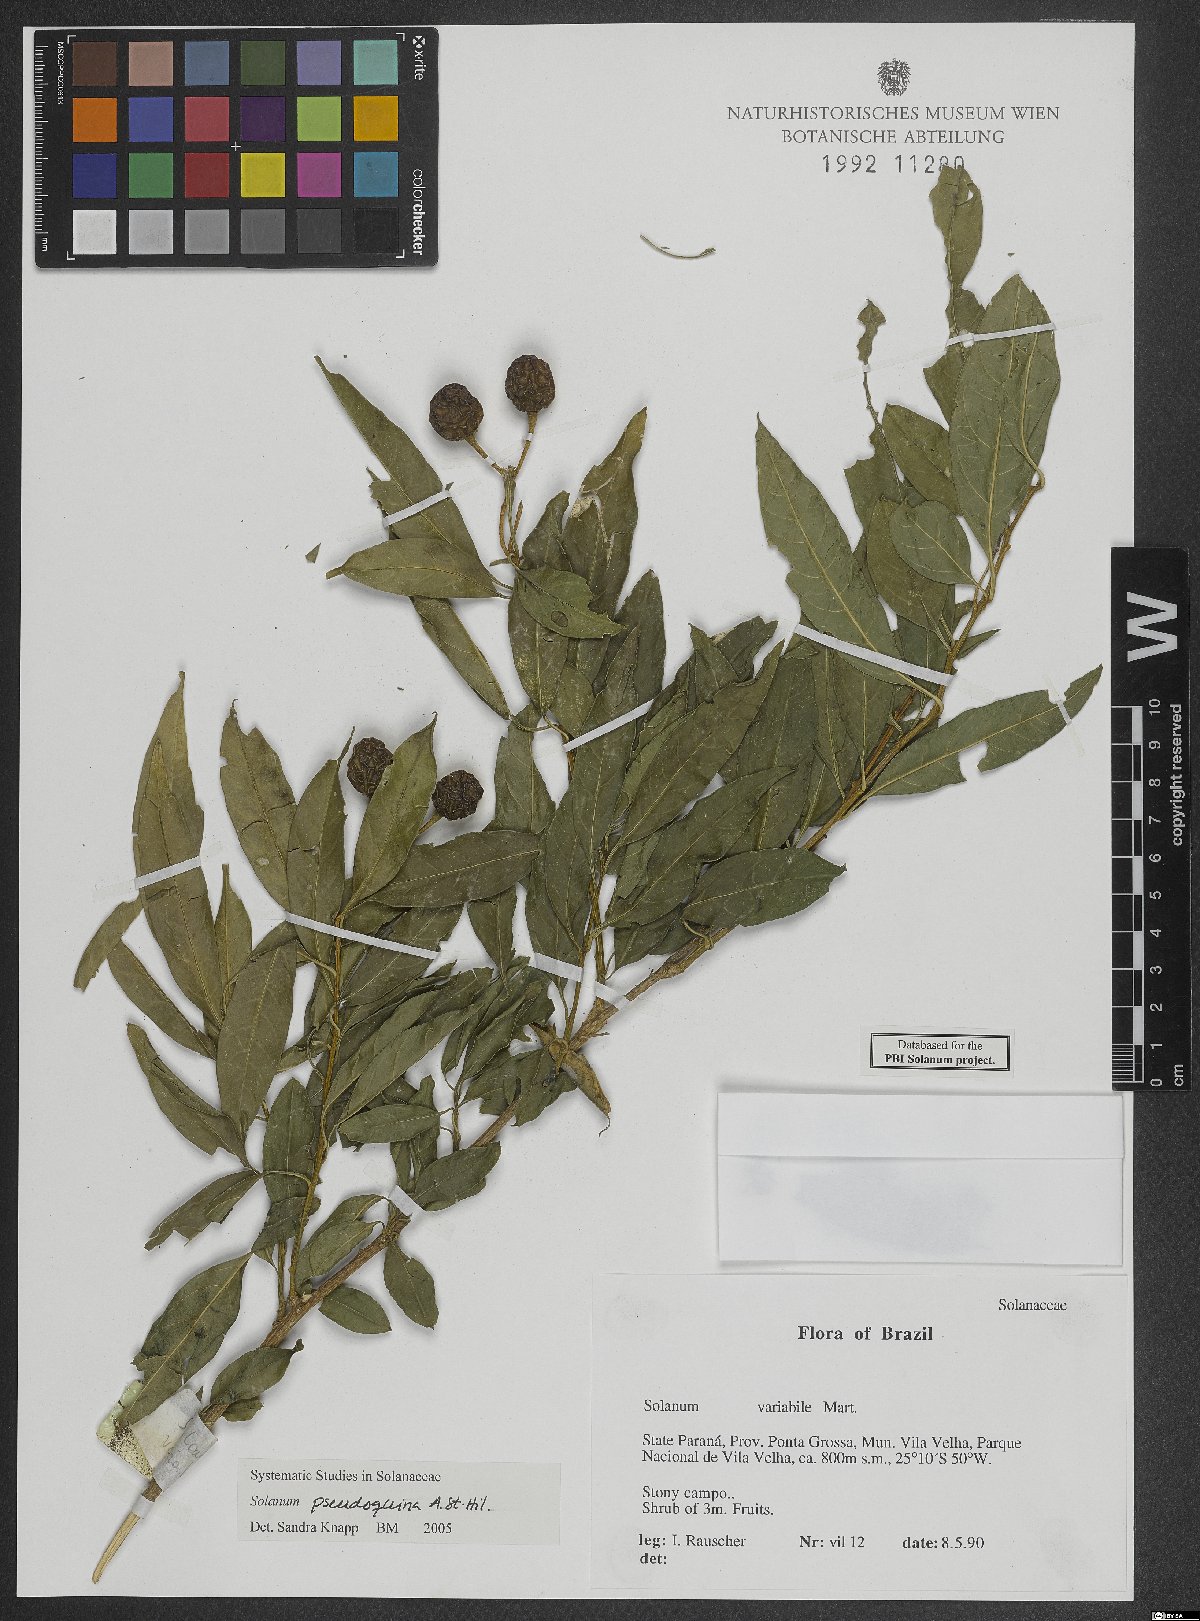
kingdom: Plantae
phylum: Tracheophyta
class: Magnoliopsida
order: Solanales
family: Solanaceae
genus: Solanum
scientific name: Solanum pseudoquina
